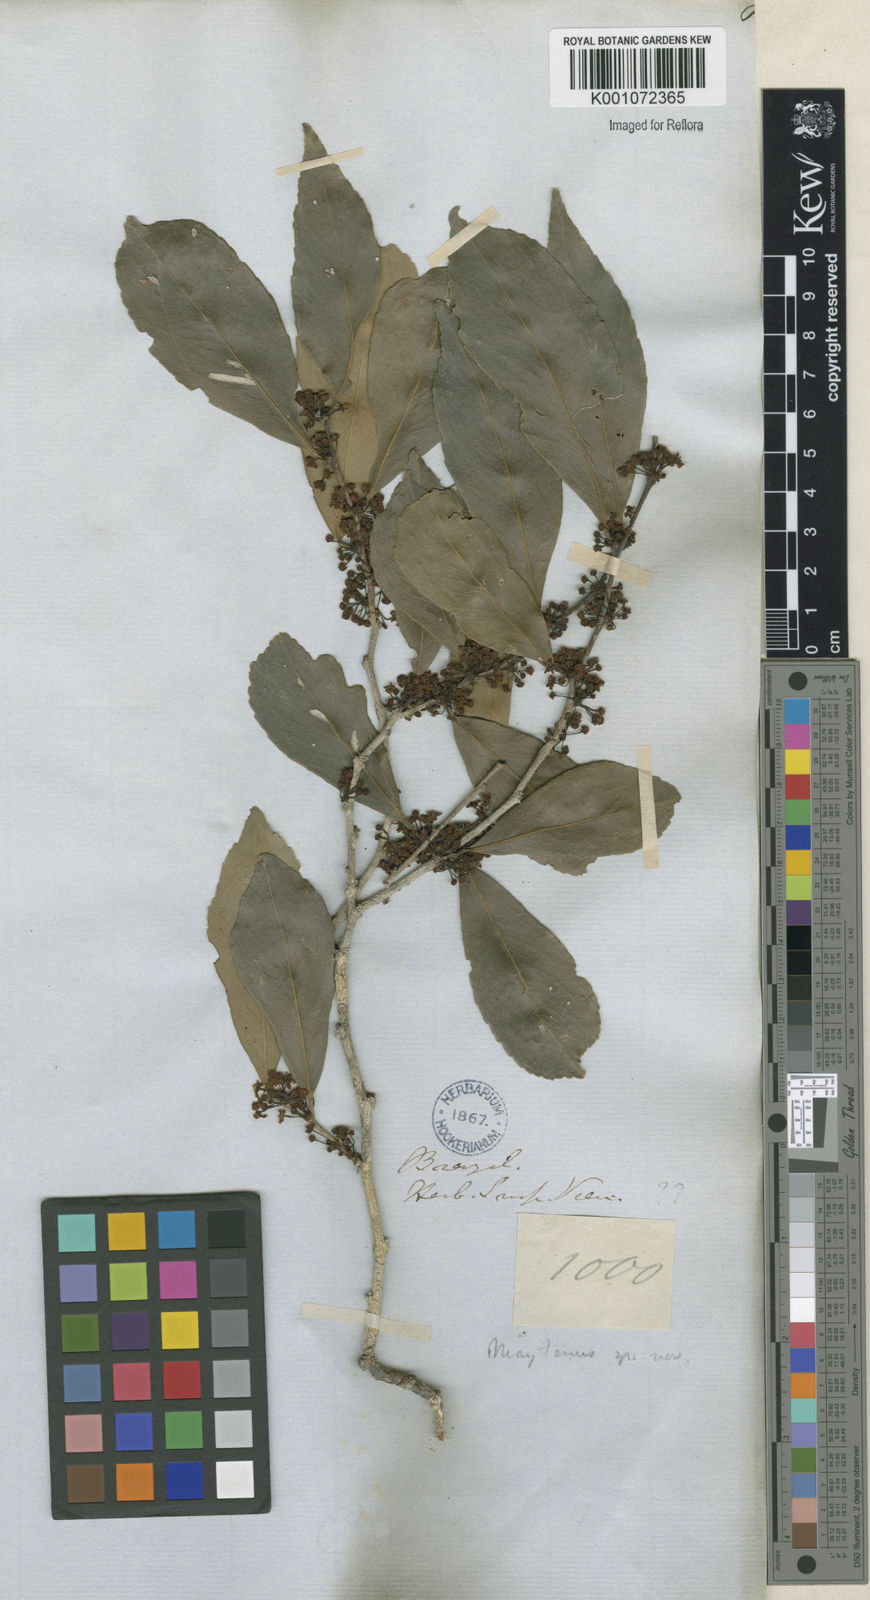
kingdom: Plantae
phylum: Tracheophyta
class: Magnoliopsida
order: Celastrales
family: Celastraceae
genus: Maytenus
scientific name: Maytenus
